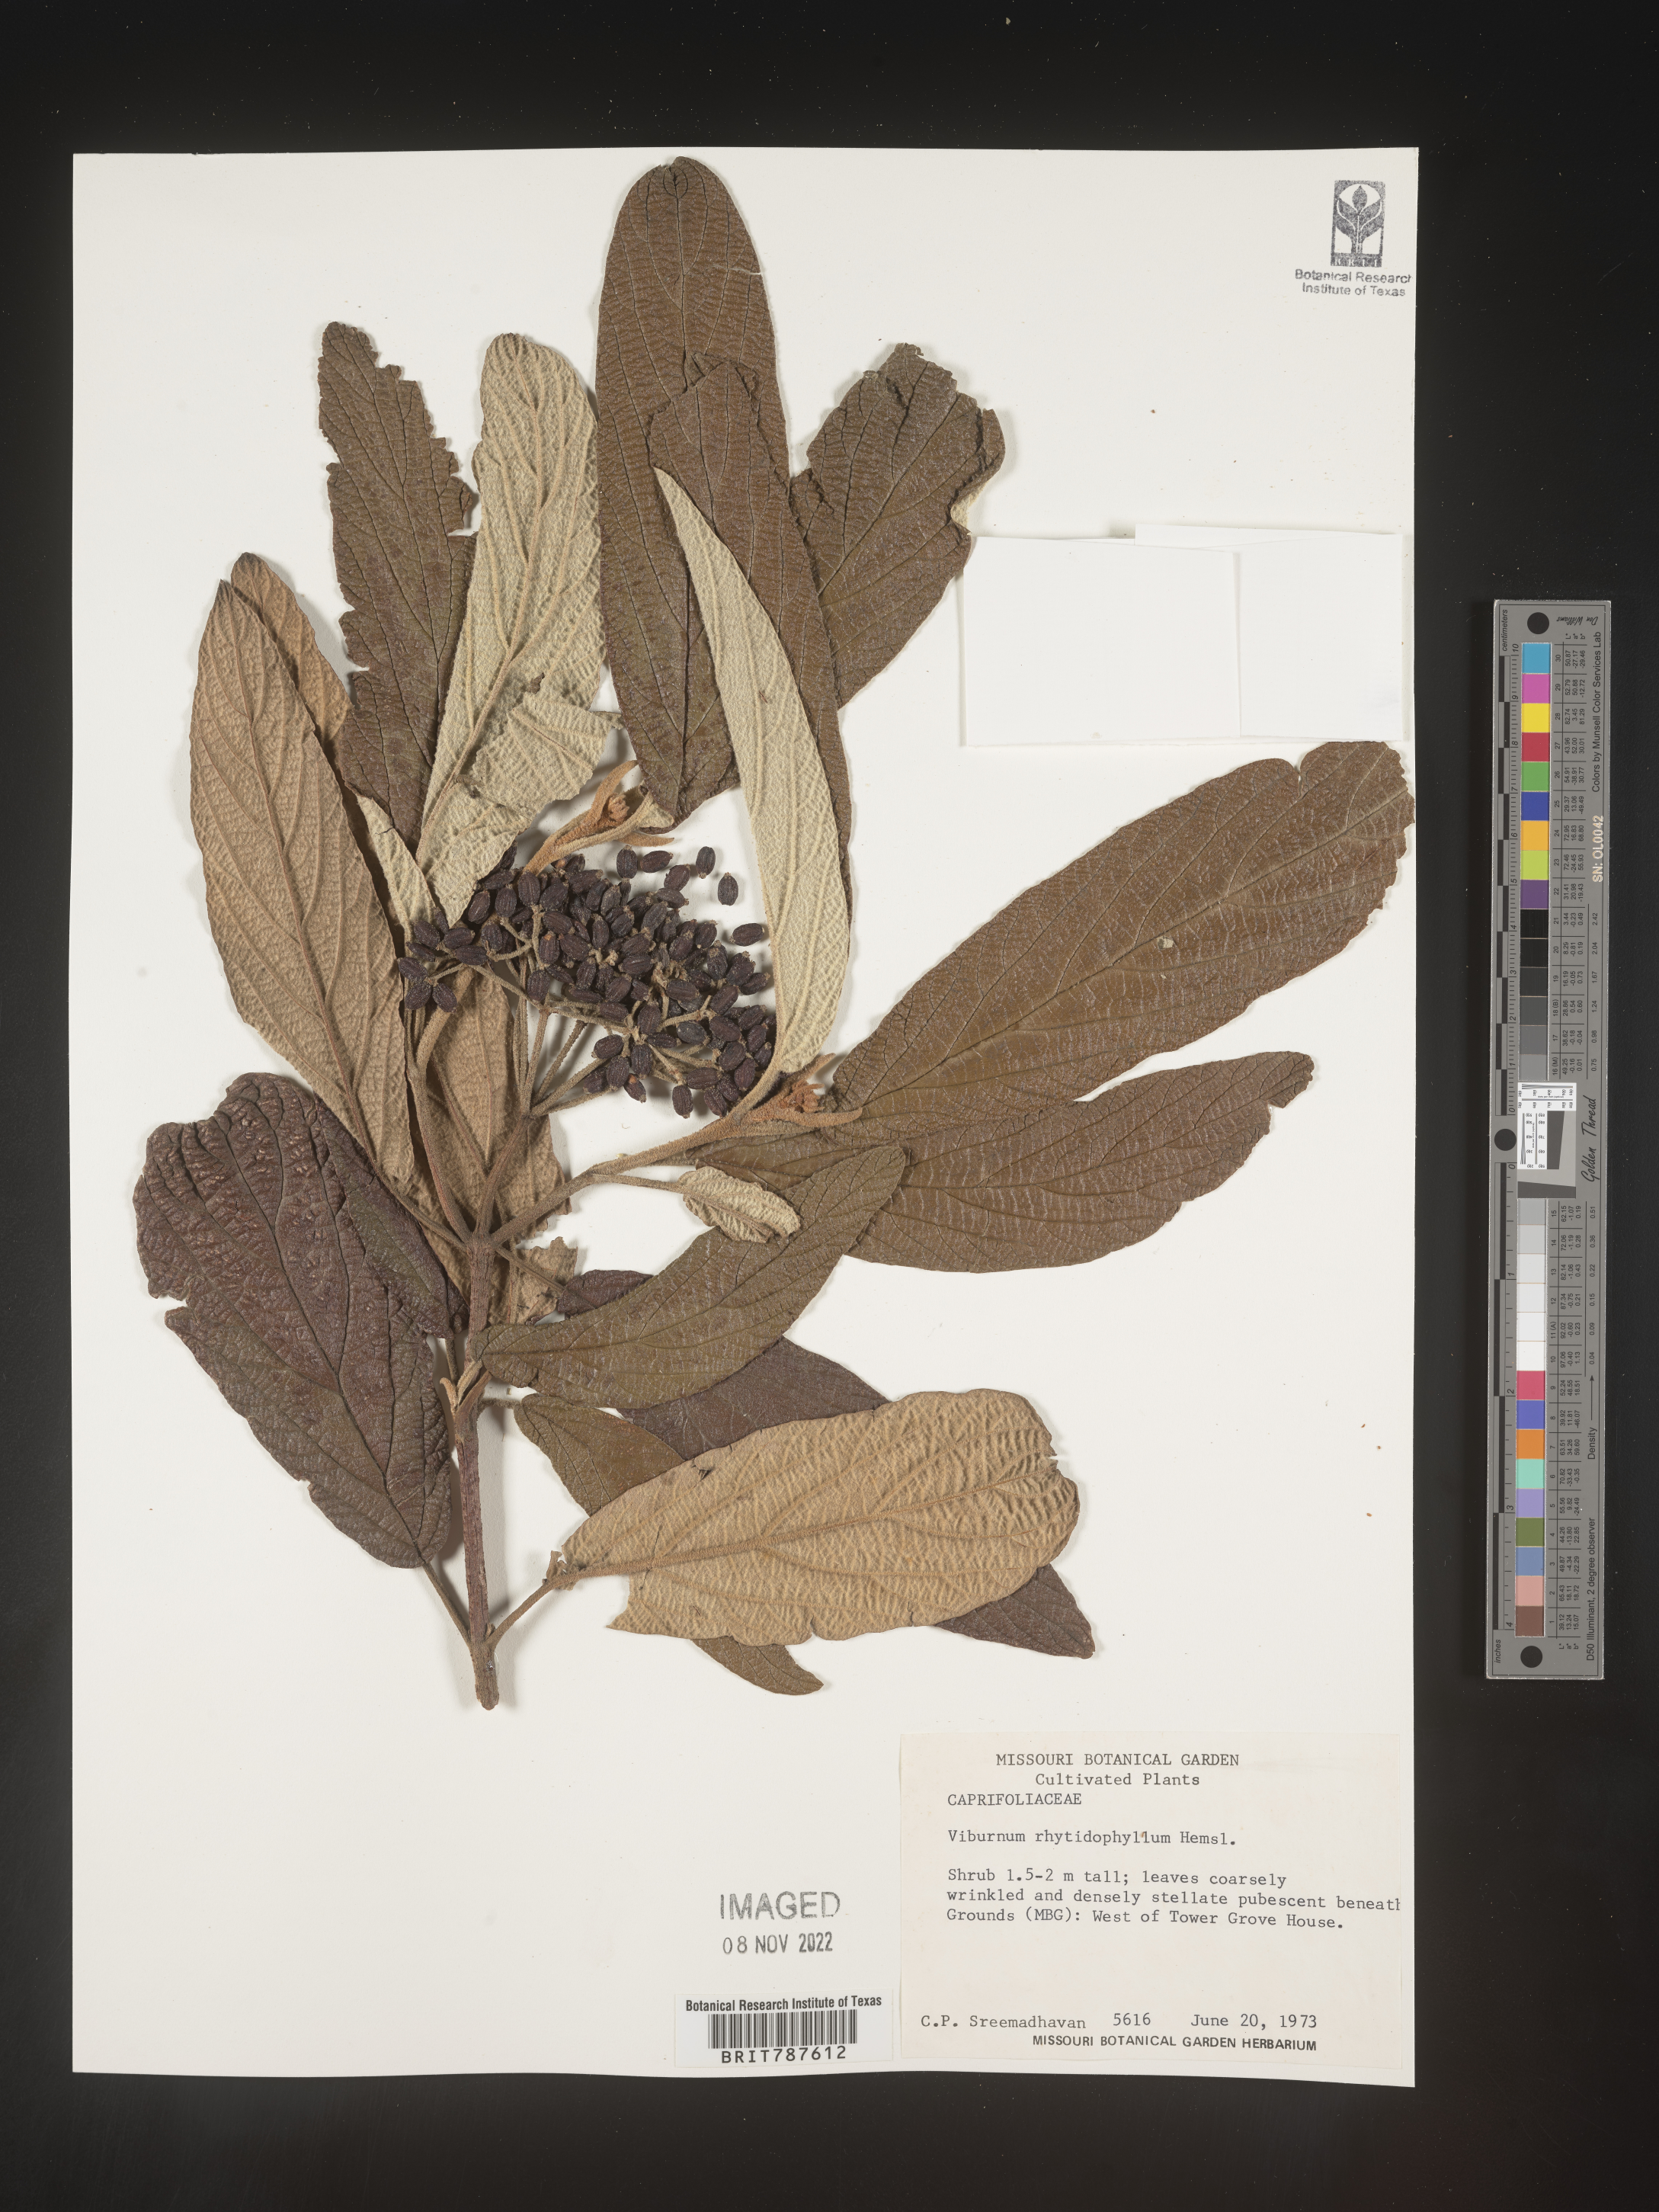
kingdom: Plantae
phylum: Tracheophyta
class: Magnoliopsida
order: Dipsacales
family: Viburnaceae
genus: Viburnum
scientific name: Viburnum
